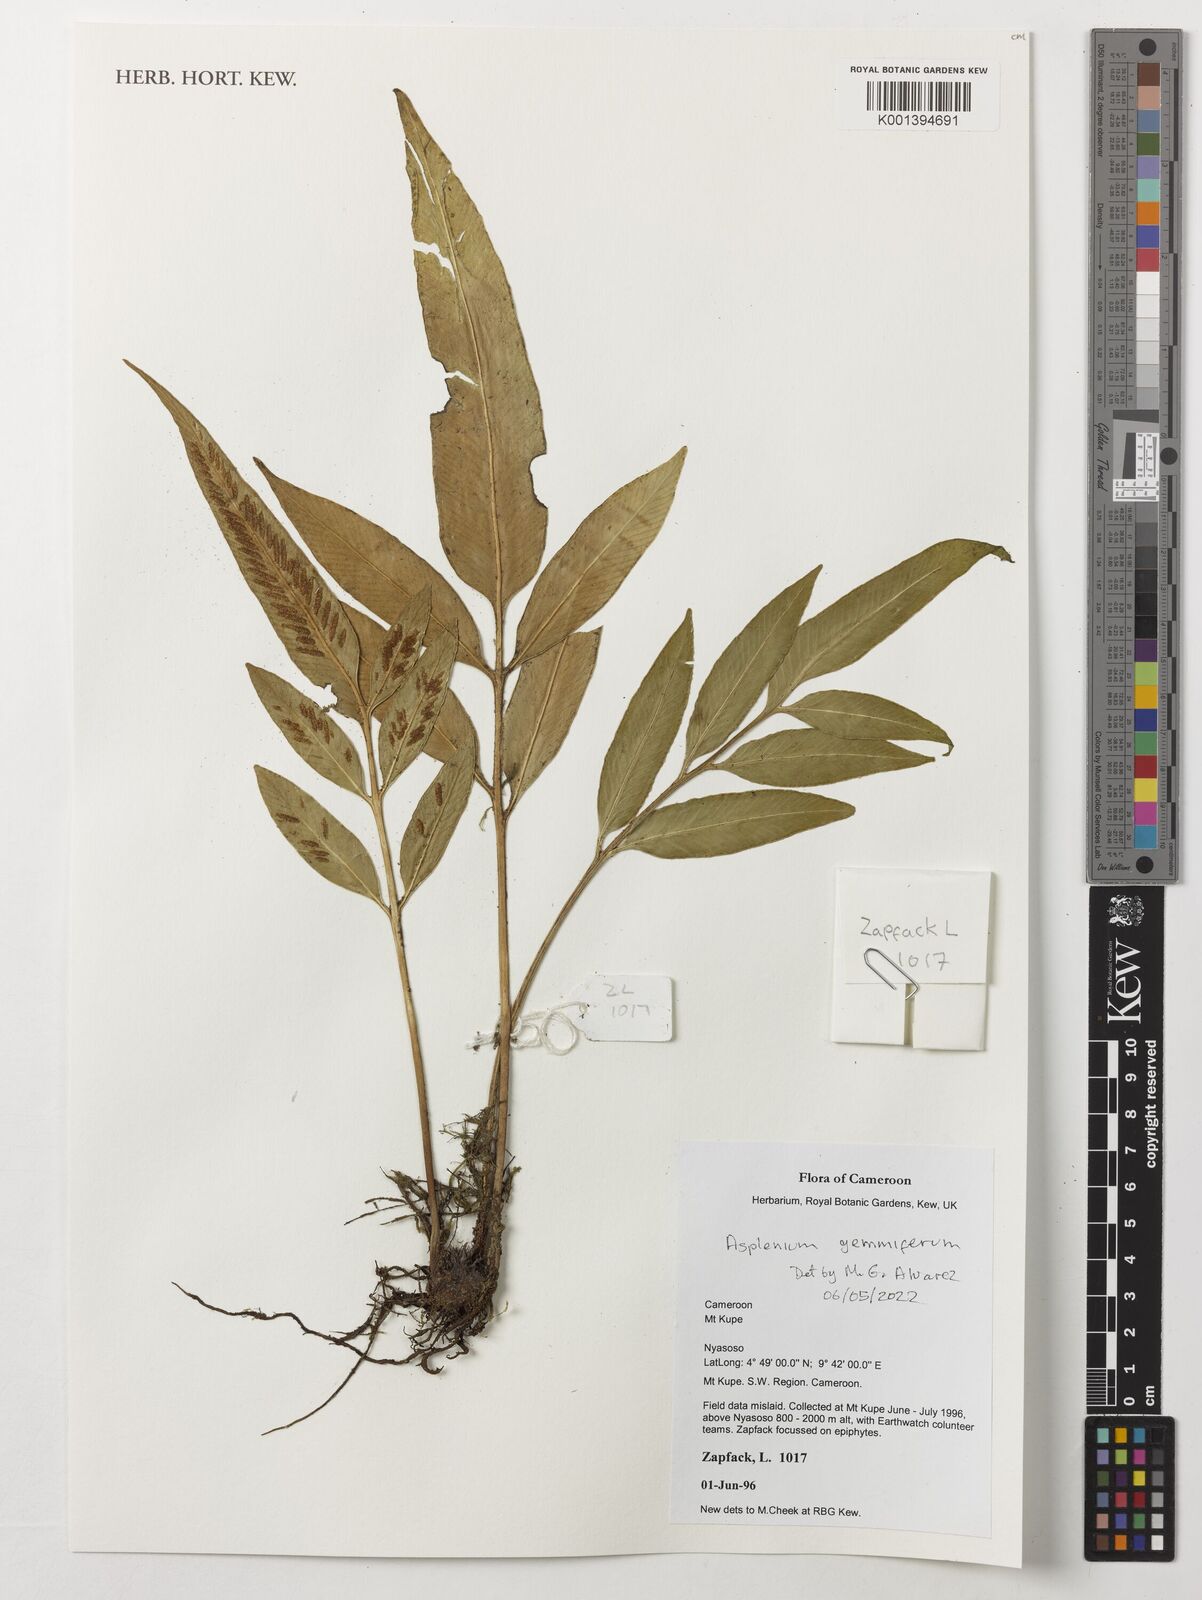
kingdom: Plantae
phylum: Tracheophyta
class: Polypodiopsida
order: Polypodiales
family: Aspleniaceae
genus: Asplenium
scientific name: Asplenium gemmiferum
